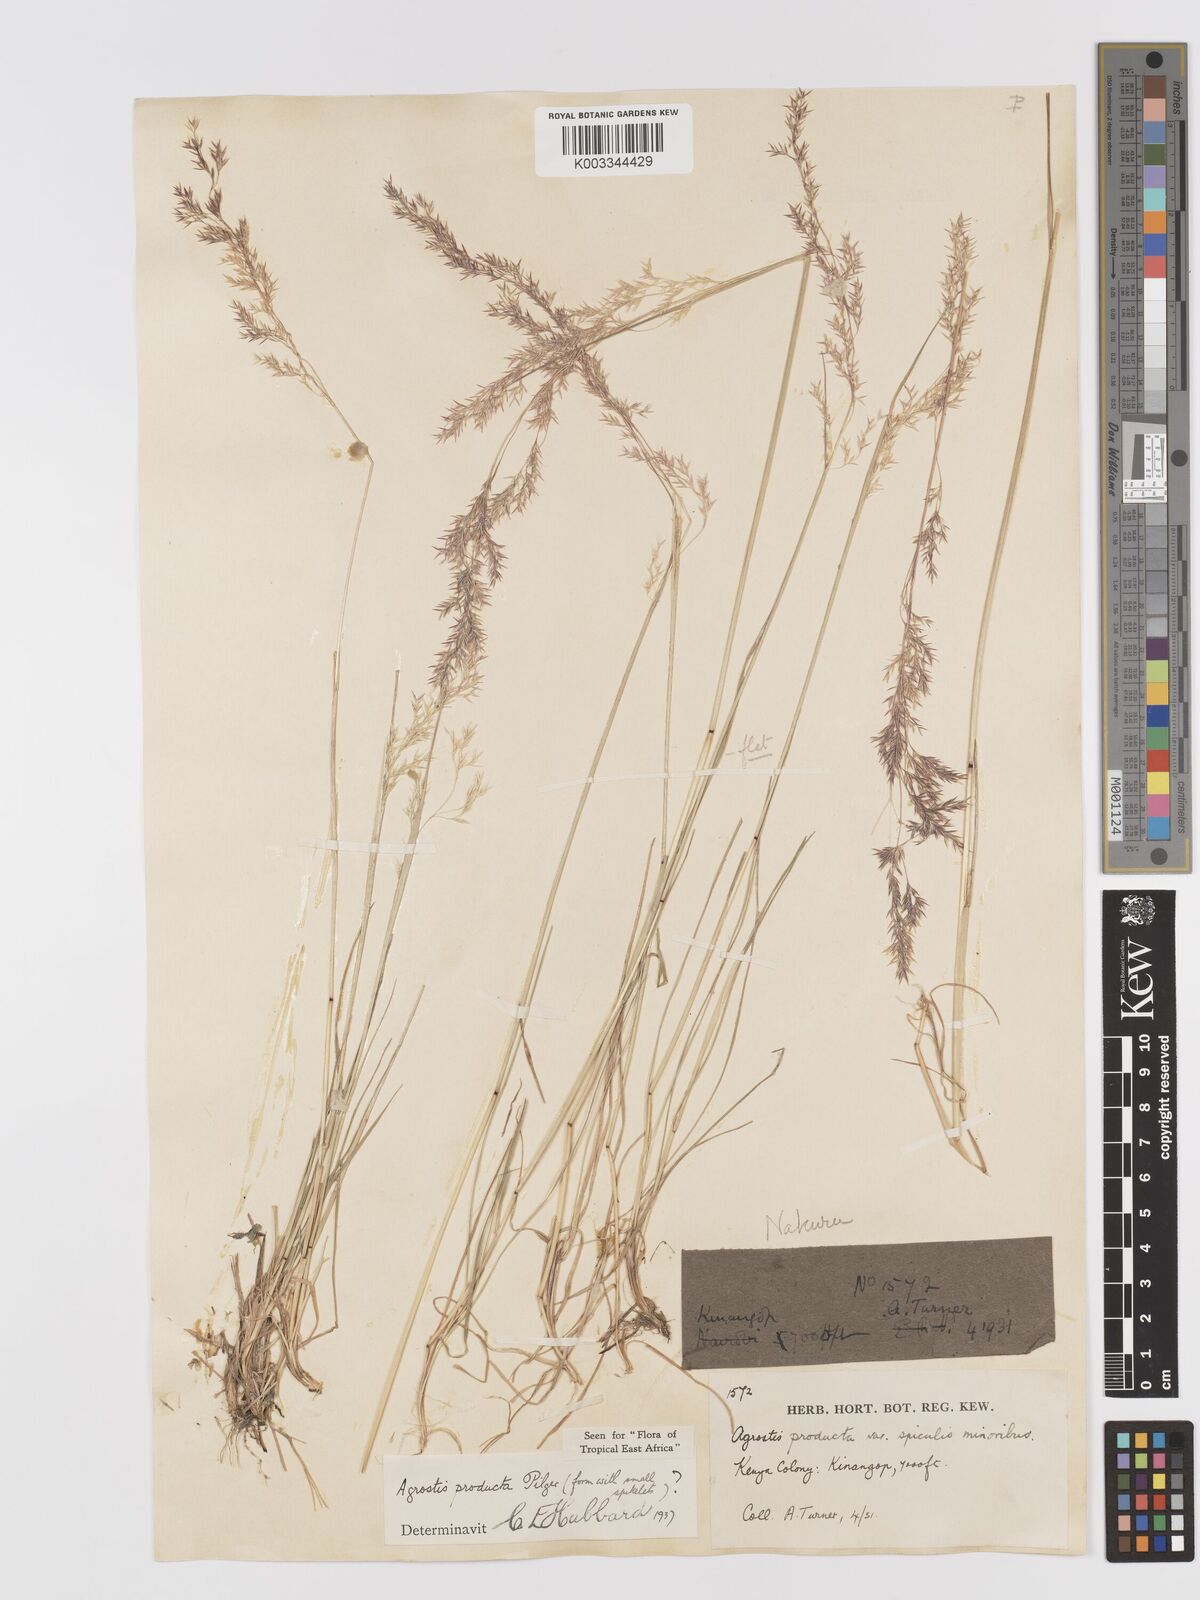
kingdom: Plantae
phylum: Tracheophyta
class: Liliopsida
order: Poales
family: Poaceae
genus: Agrostis
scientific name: Agrostis producta
